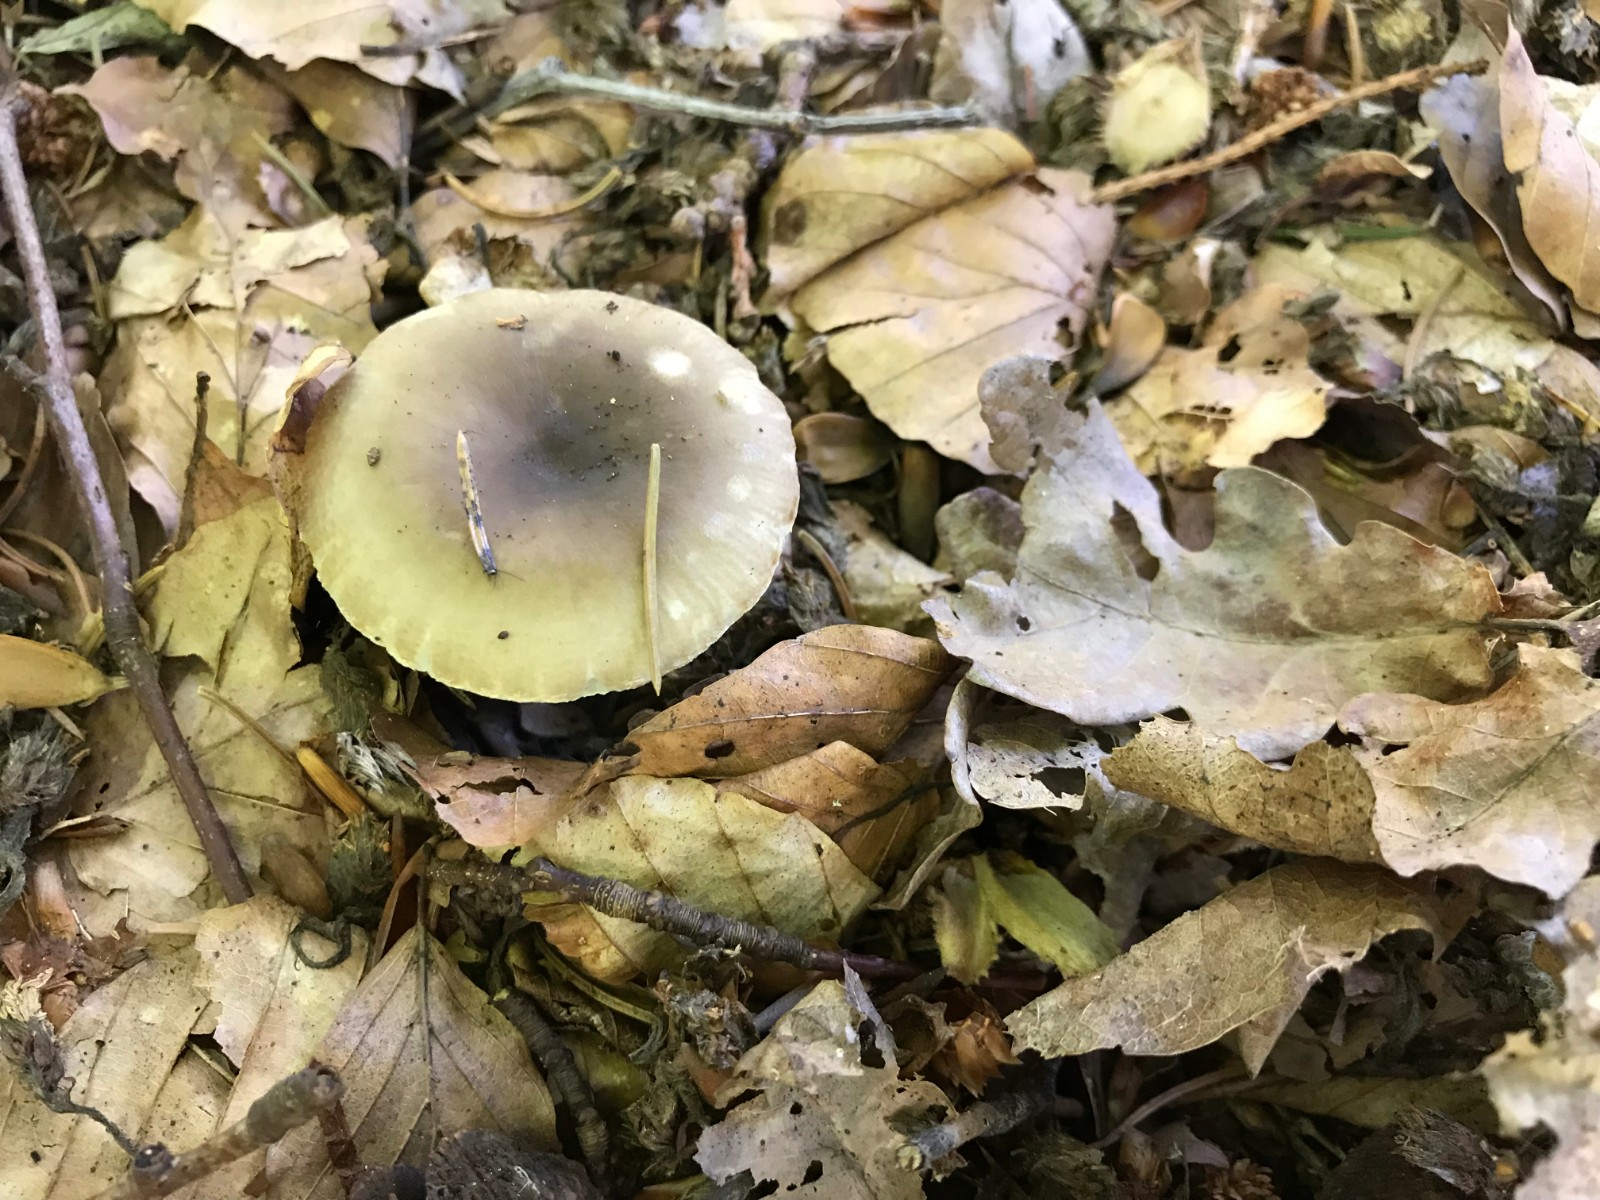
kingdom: Fungi
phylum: Basidiomycota
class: Agaricomycetes
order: Russulales
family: Russulaceae
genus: Russula
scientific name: Russula
